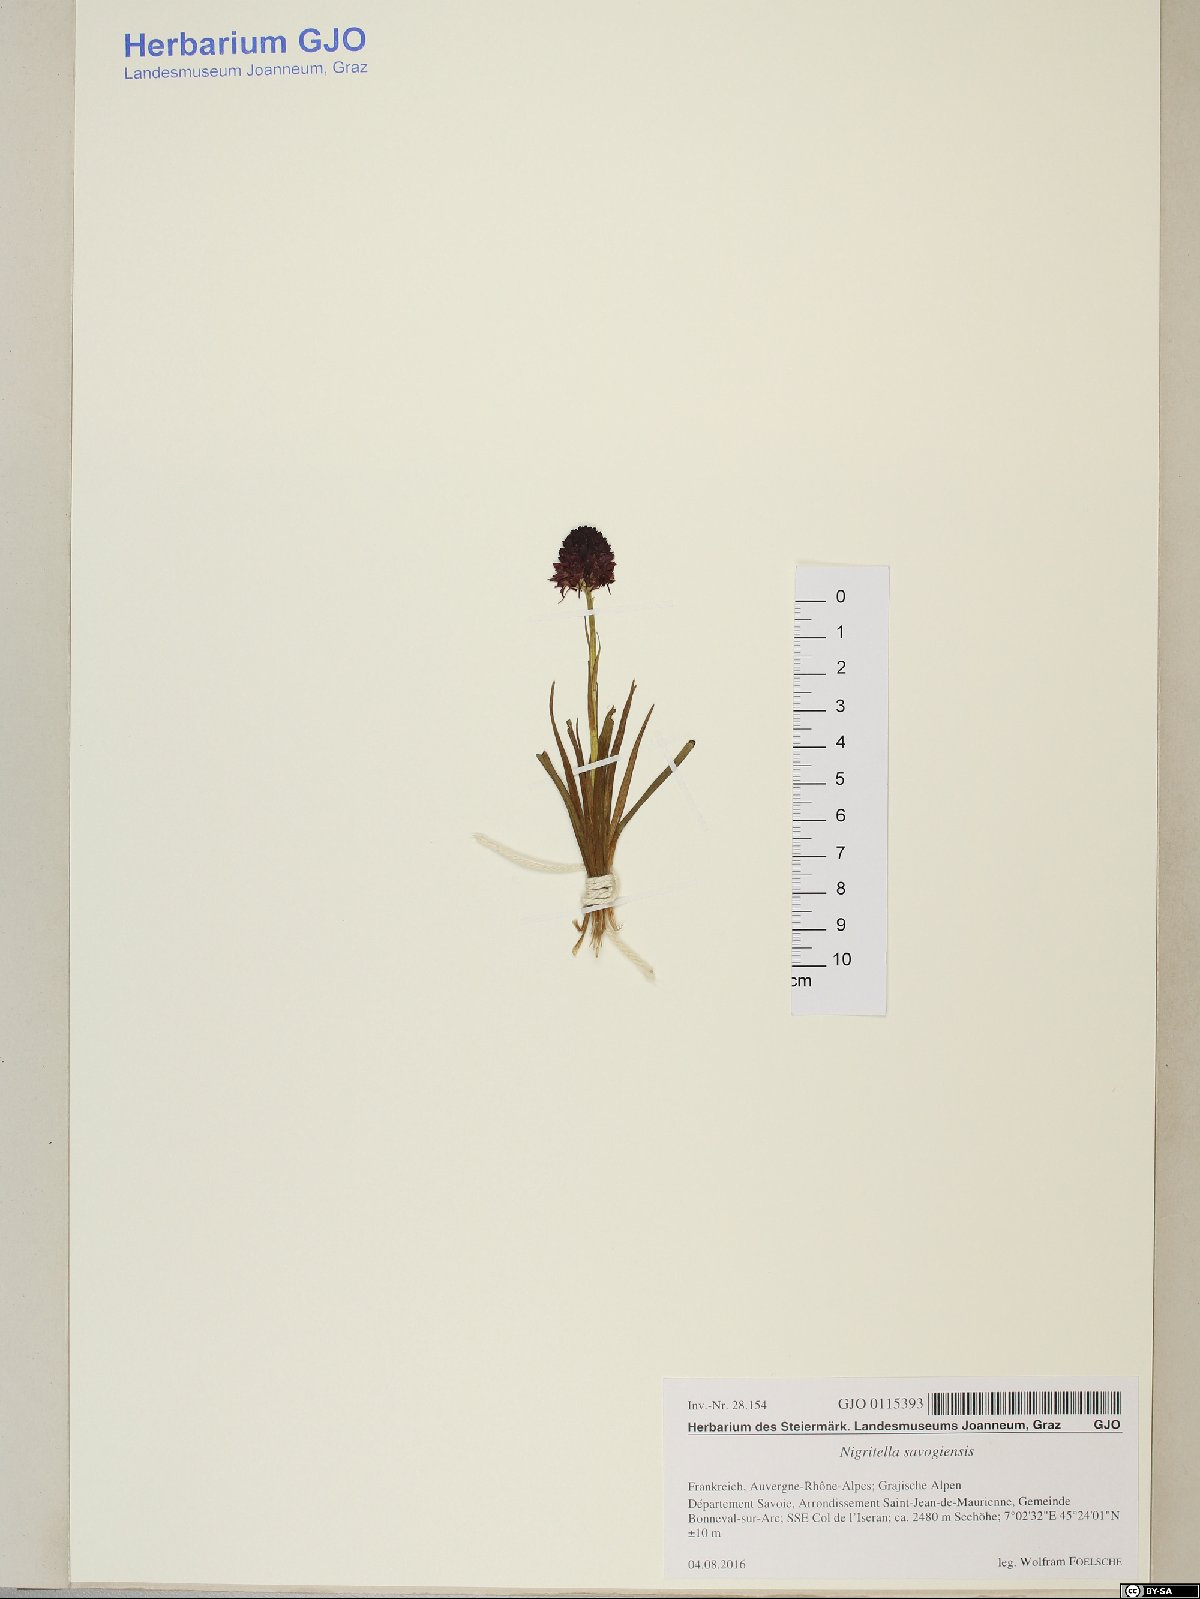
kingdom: Animalia
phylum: Mollusca
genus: Nigritella
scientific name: Nigritella
